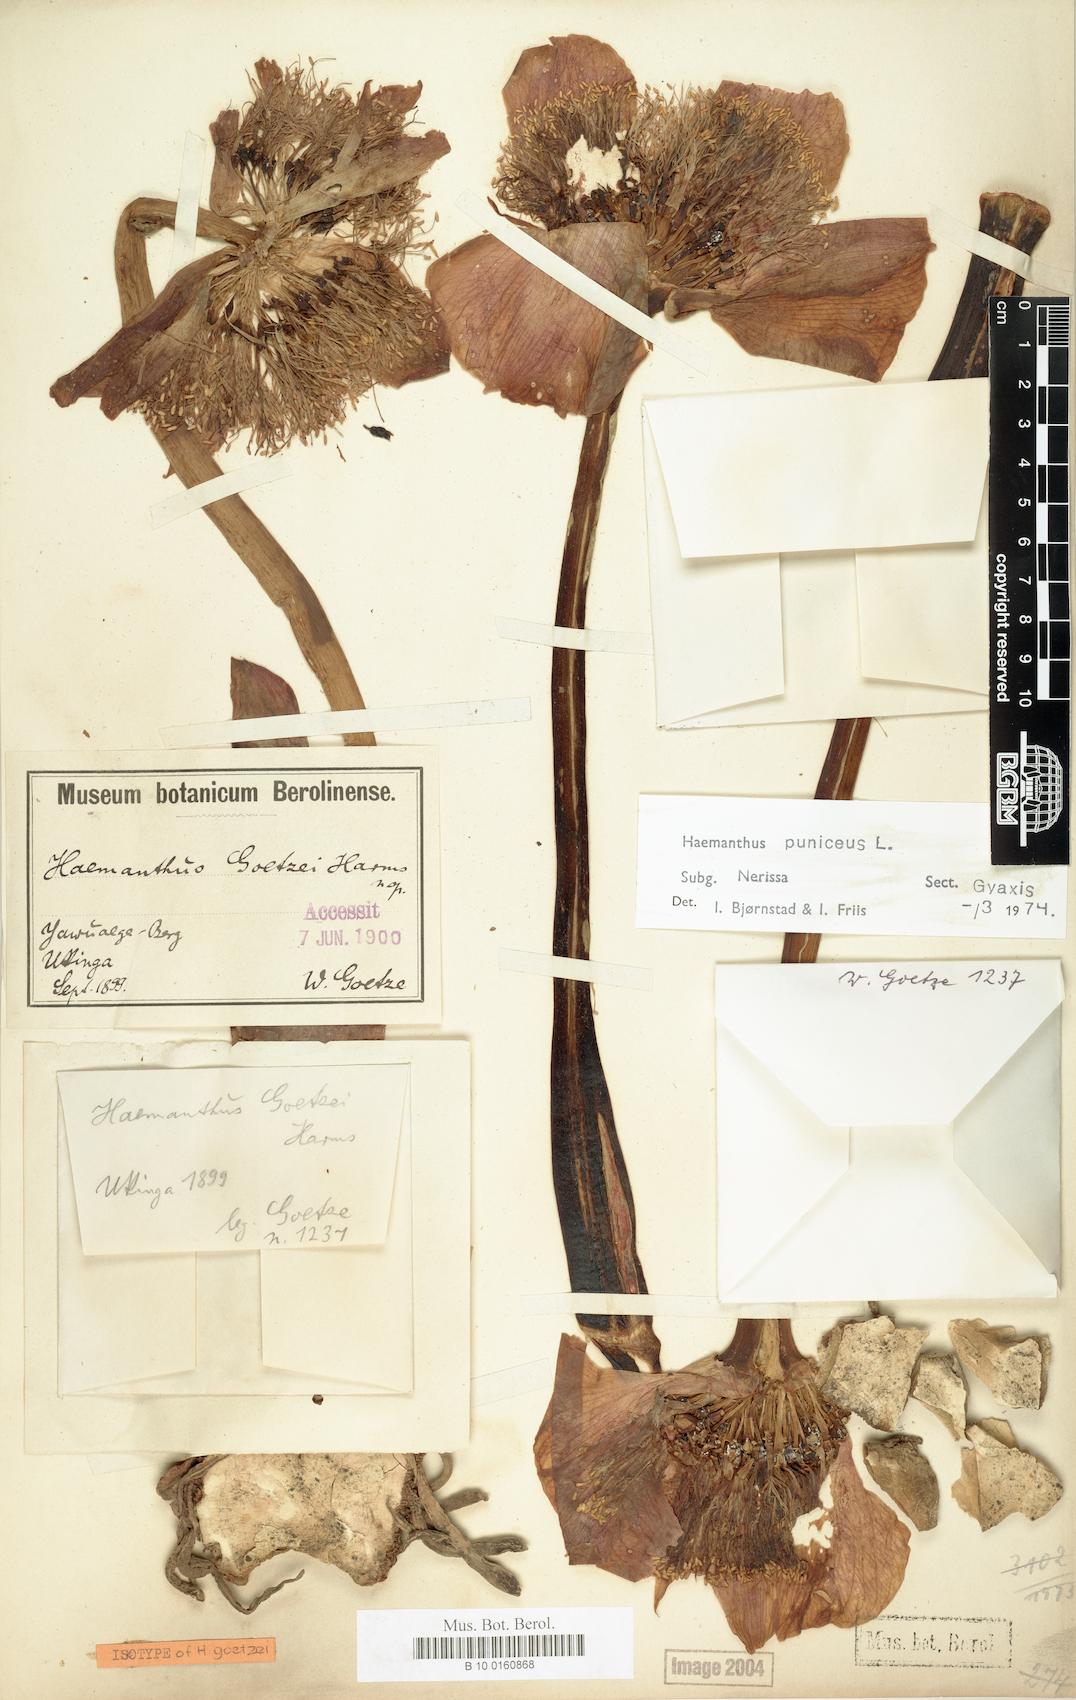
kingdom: Plantae
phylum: Tracheophyta
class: Liliopsida
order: Asparagales
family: Amaryllidaceae
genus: Scadoxus
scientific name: Scadoxus puniceus
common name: Royal-paintbrush
